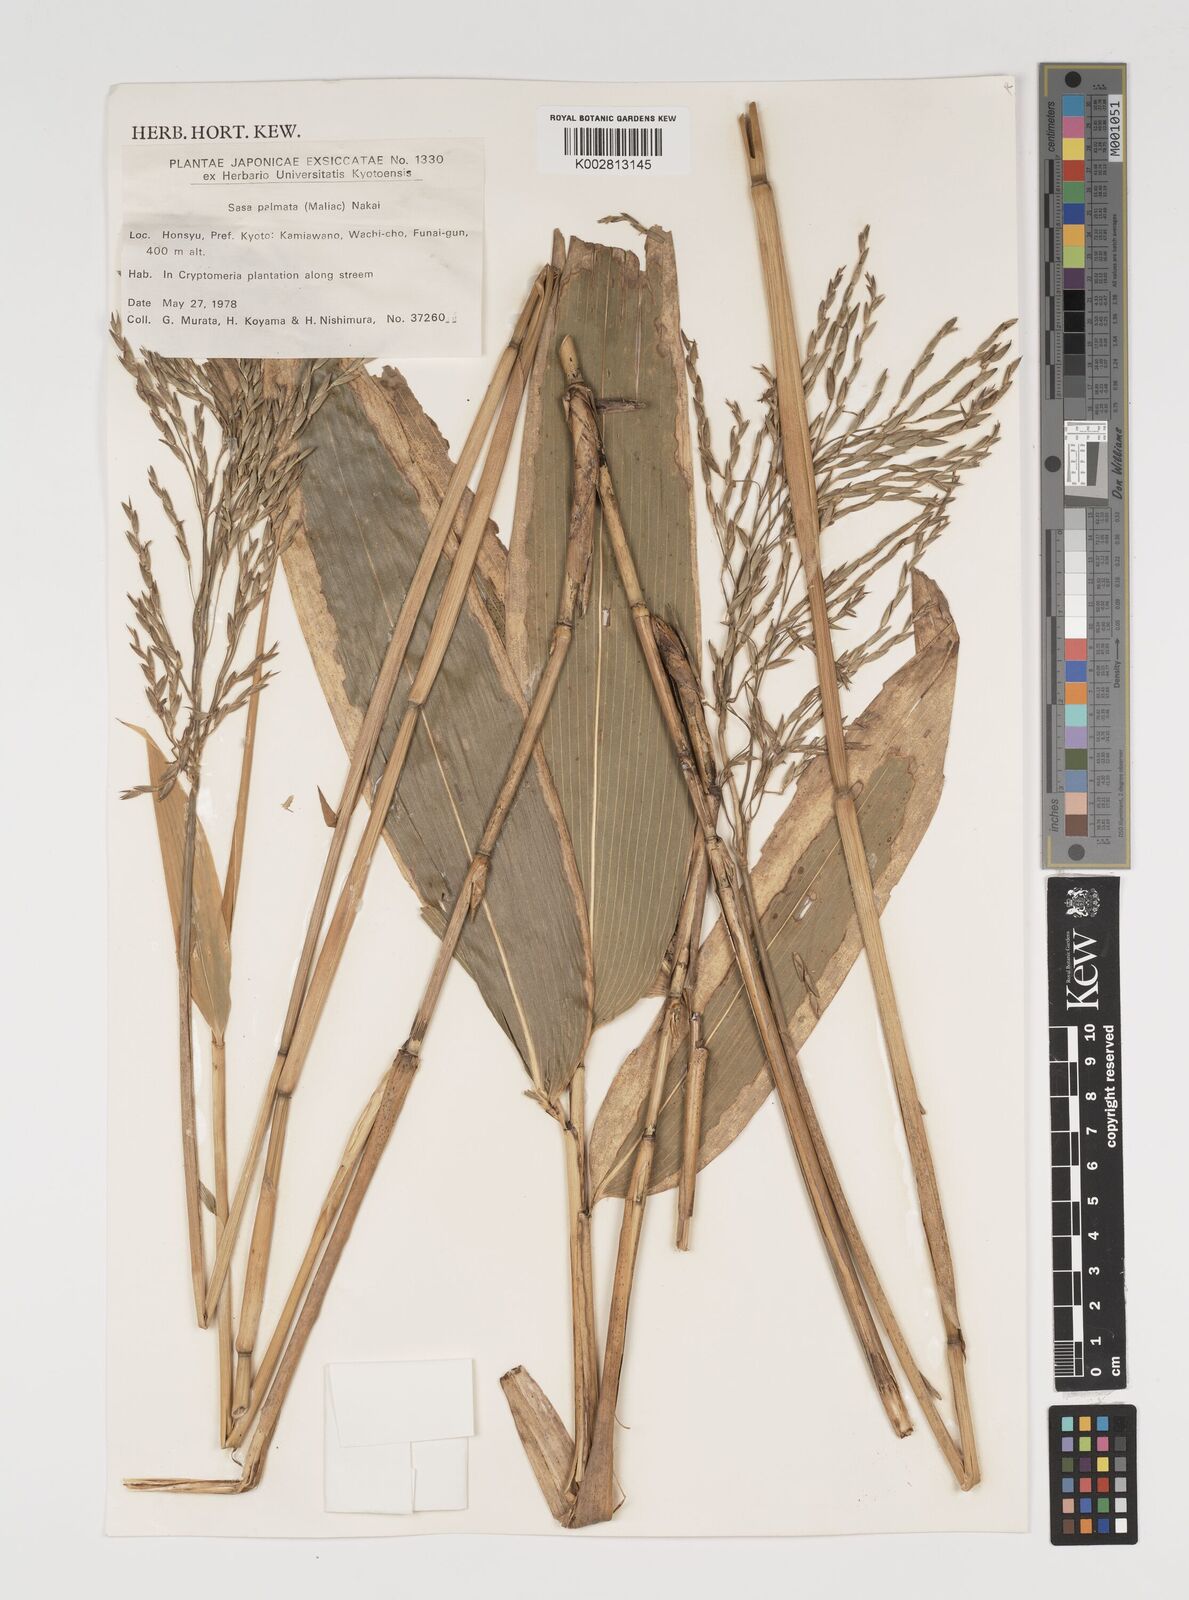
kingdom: Plantae
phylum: Tracheophyta
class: Liliopsida
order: Poales
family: Poaceae
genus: Sasa
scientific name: Sasa palmata
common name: Broad-leaved bamboo
